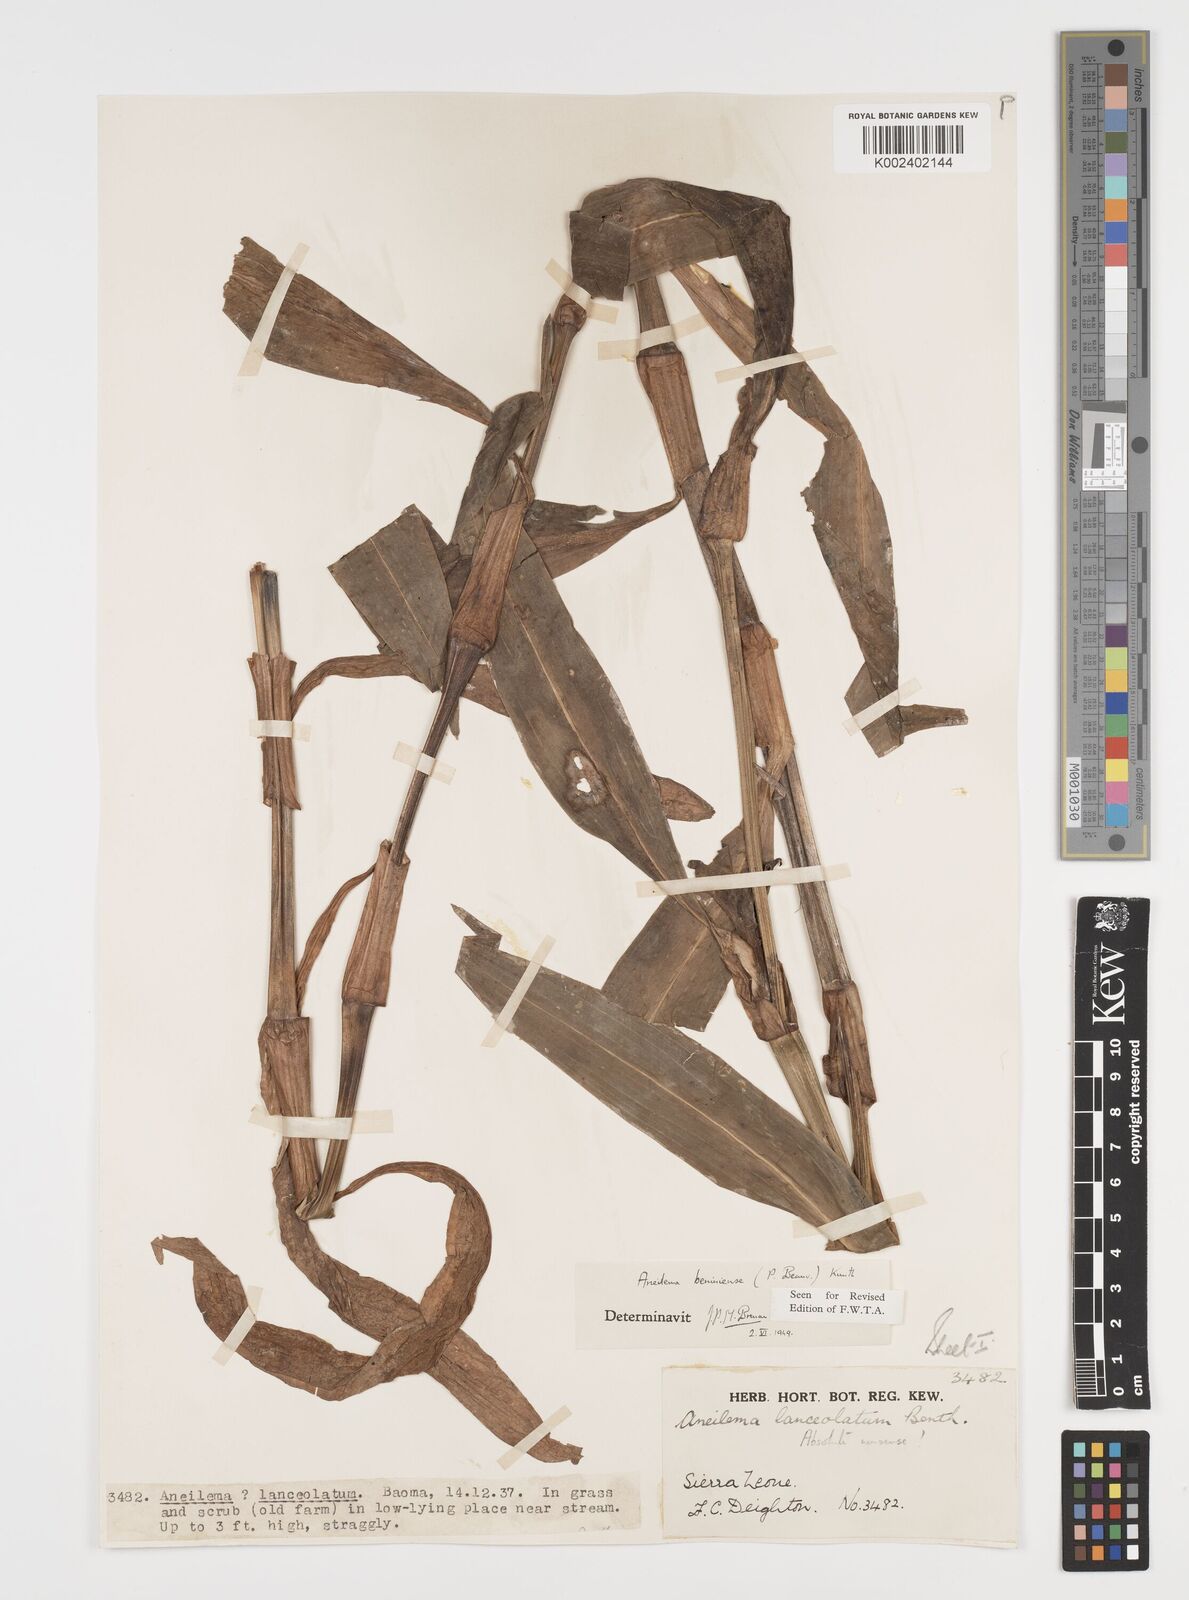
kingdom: Plantae
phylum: Tracheophyta
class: Liliopsida
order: Commelinales
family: Commelinaceae
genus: Aneilema
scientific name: Aneilema beniniense
